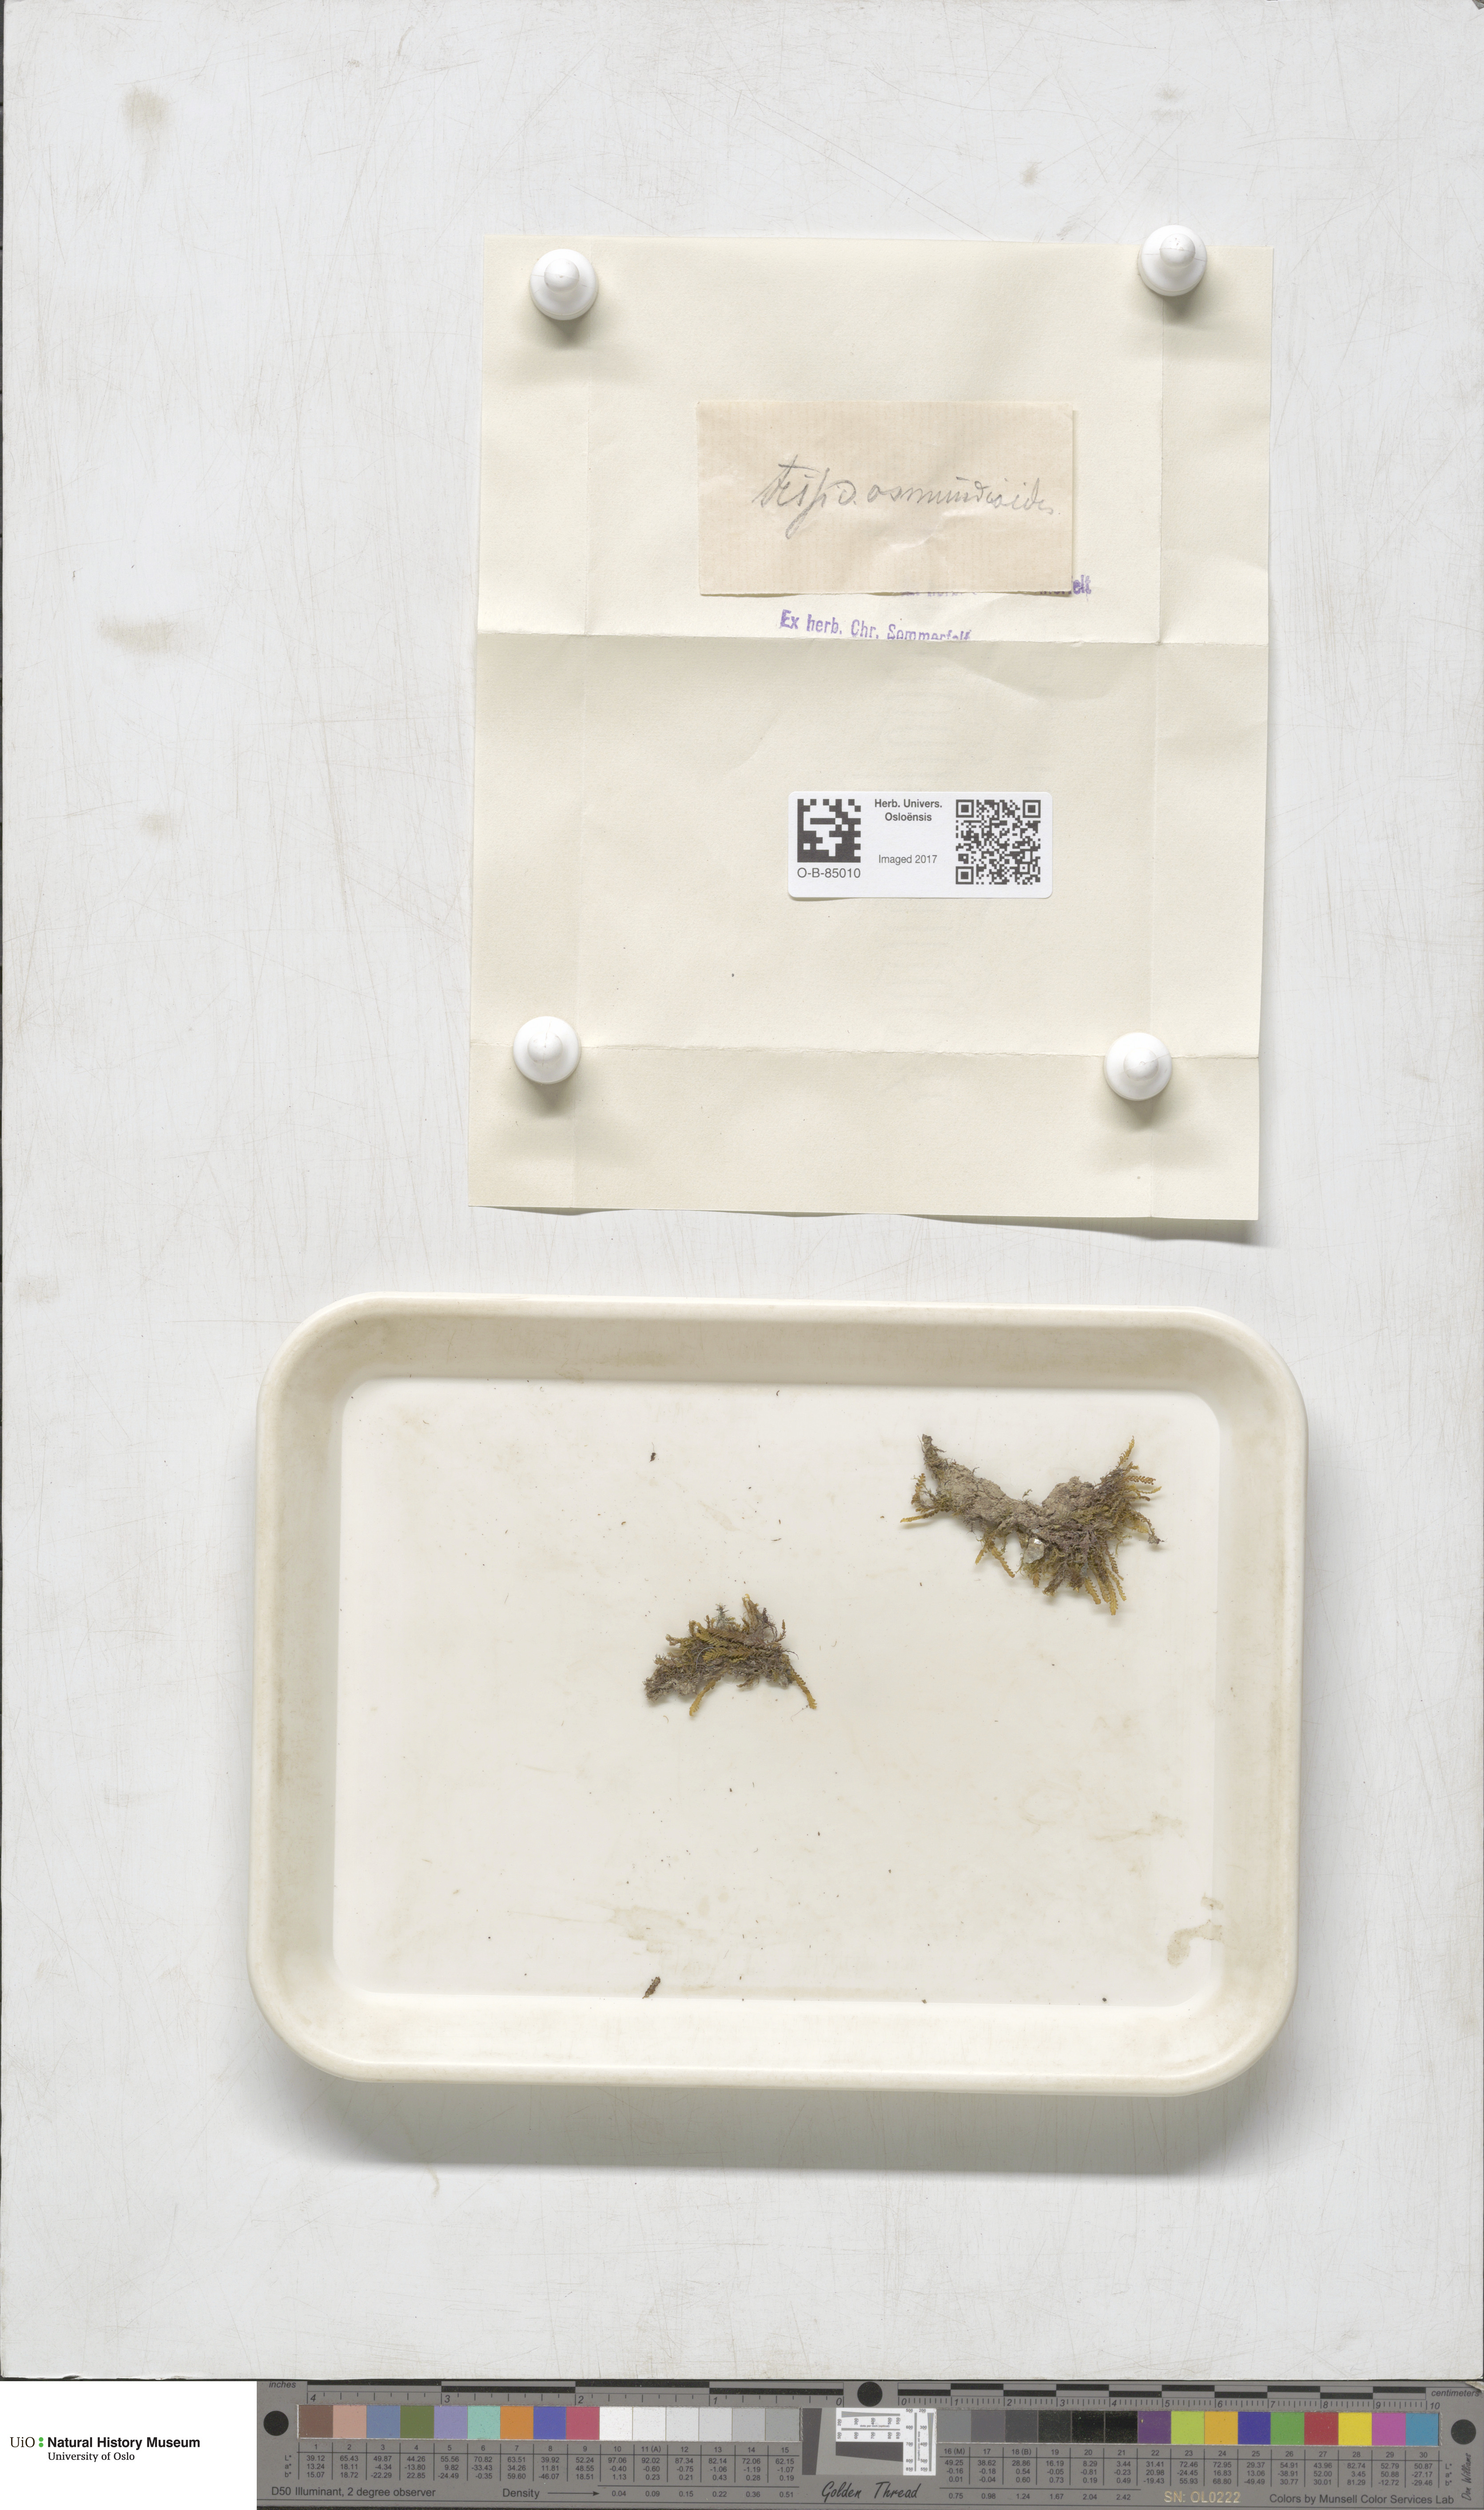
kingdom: Plantae
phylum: Bryophyta
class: Bryopsida
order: Dicranales
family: Fissidentaceae
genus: Fissidens
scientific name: Fissidens osmundoides
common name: Purple-stalked pocket moss
